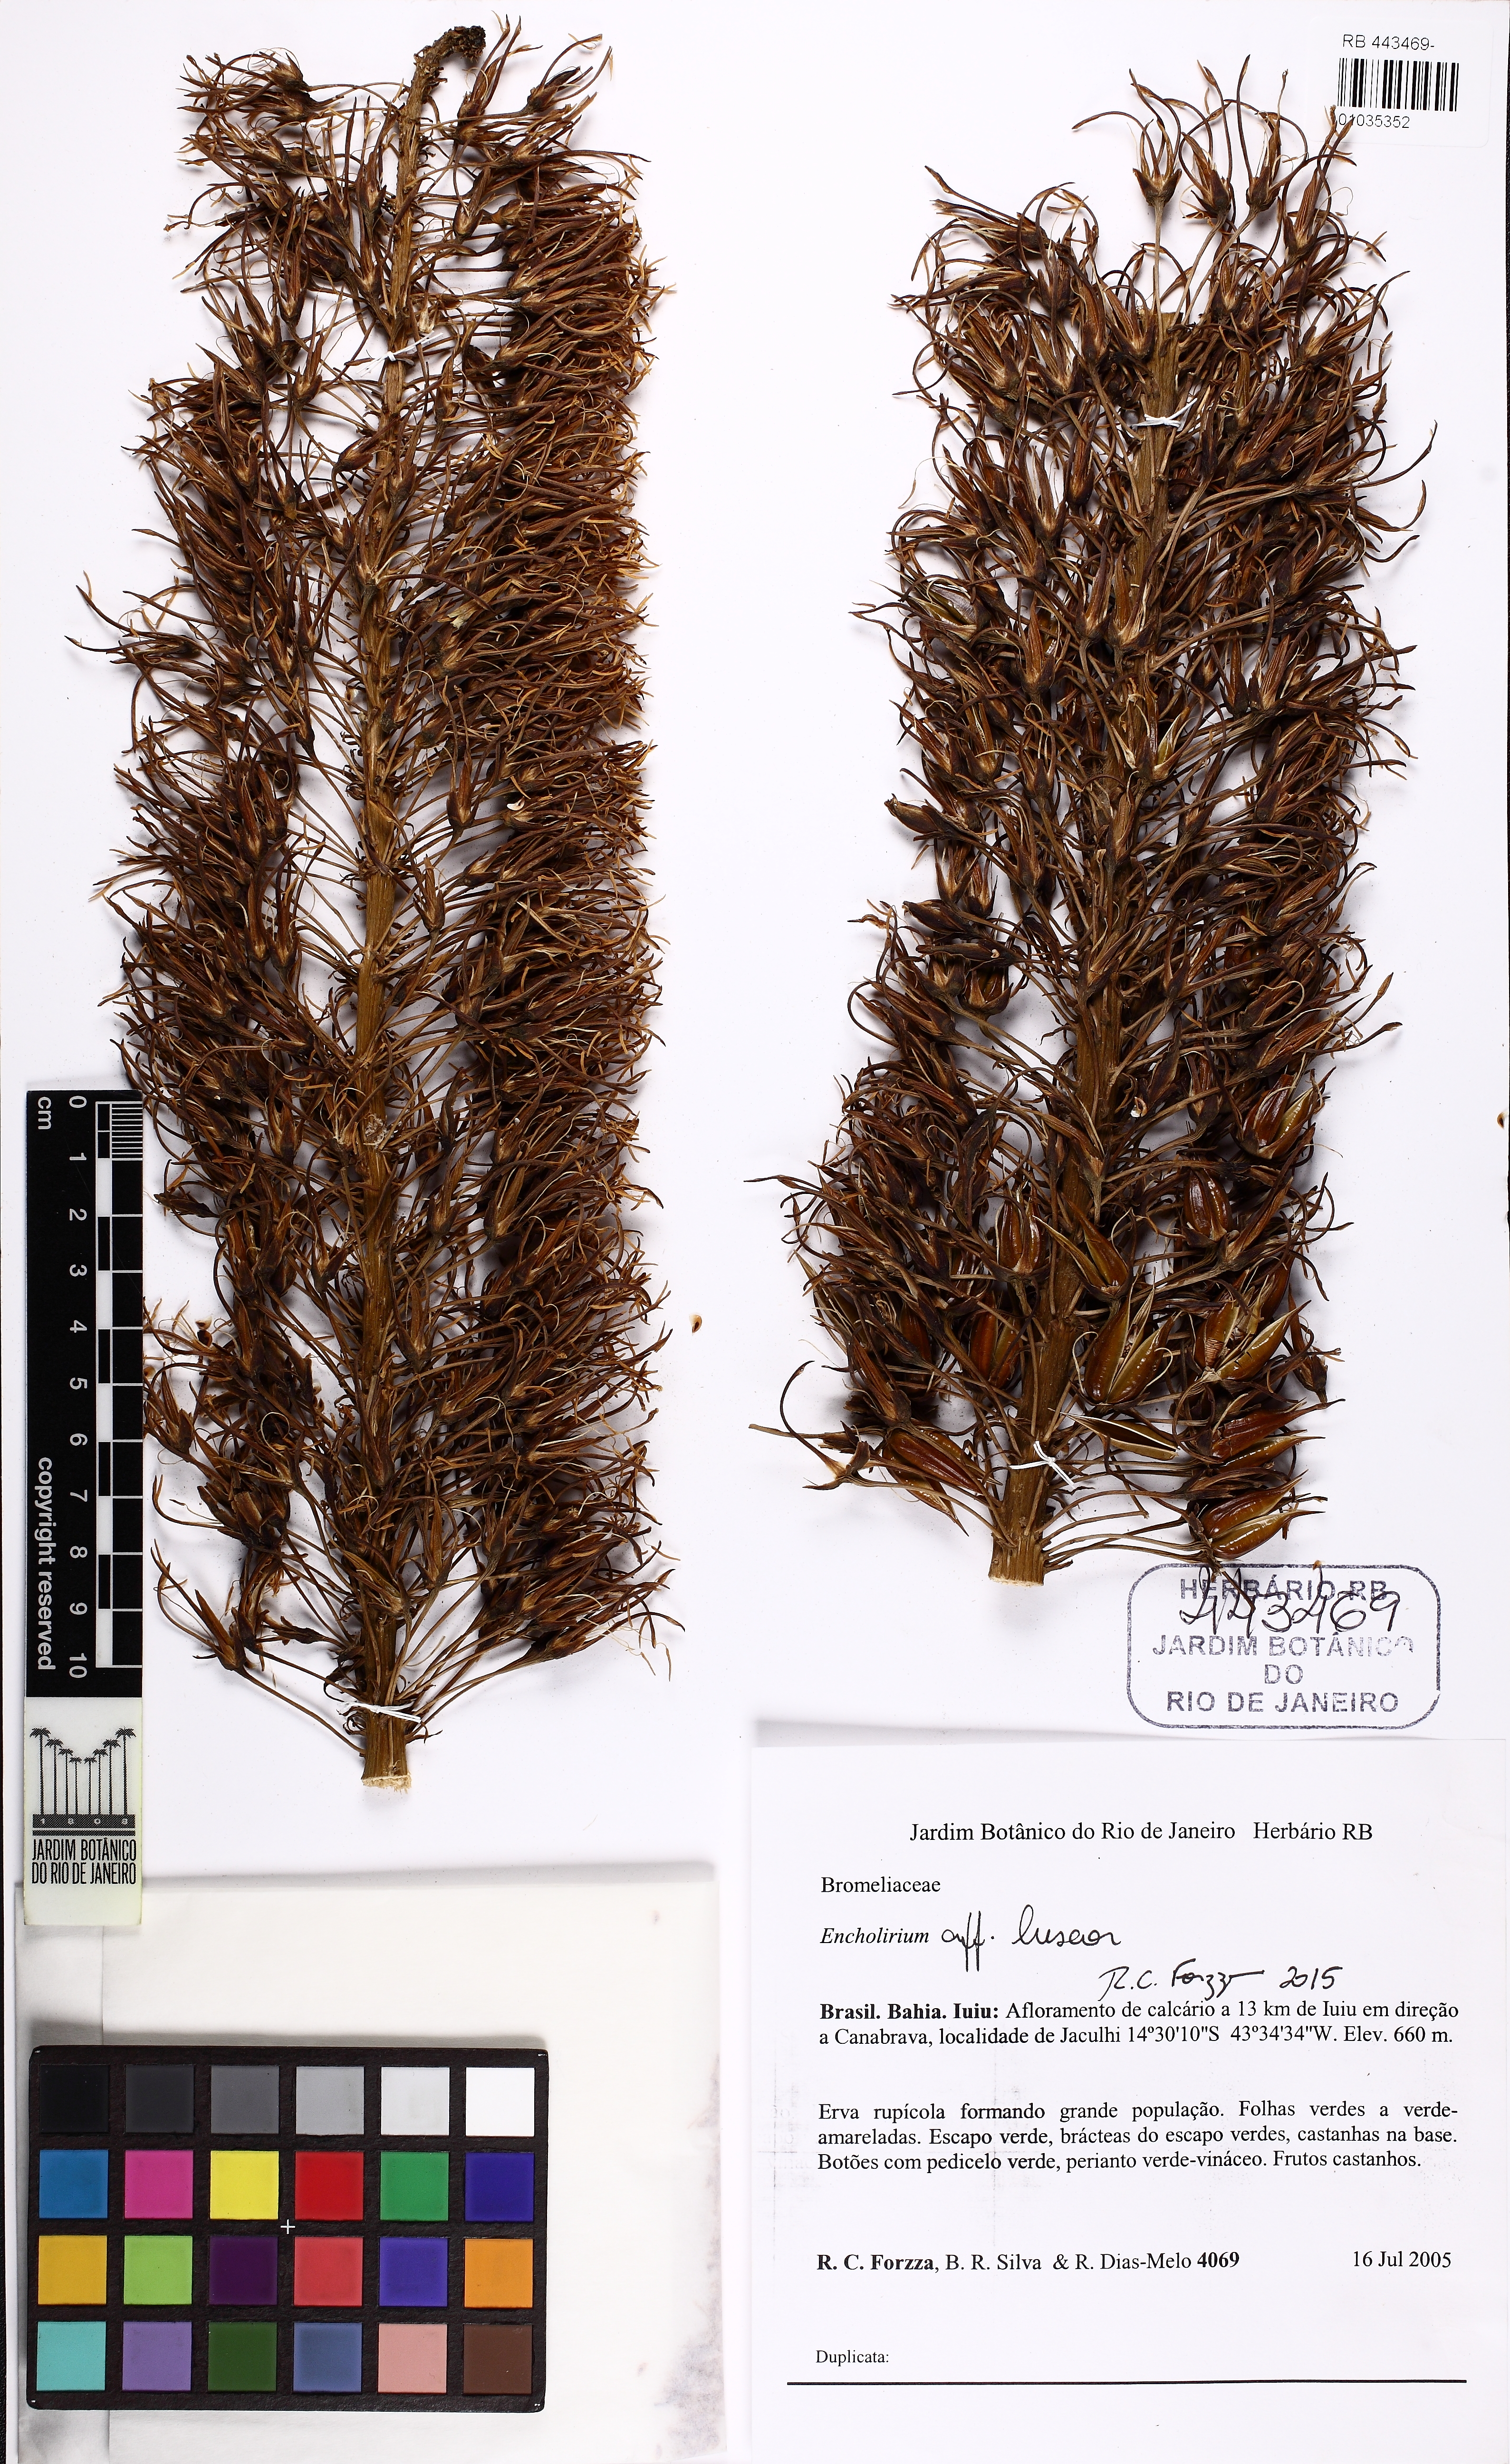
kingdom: Plantae
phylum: Tracheophyta
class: Liliopsida
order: Poales
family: Bromeliaceae
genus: Encholirium
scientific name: Encholirium luxor
